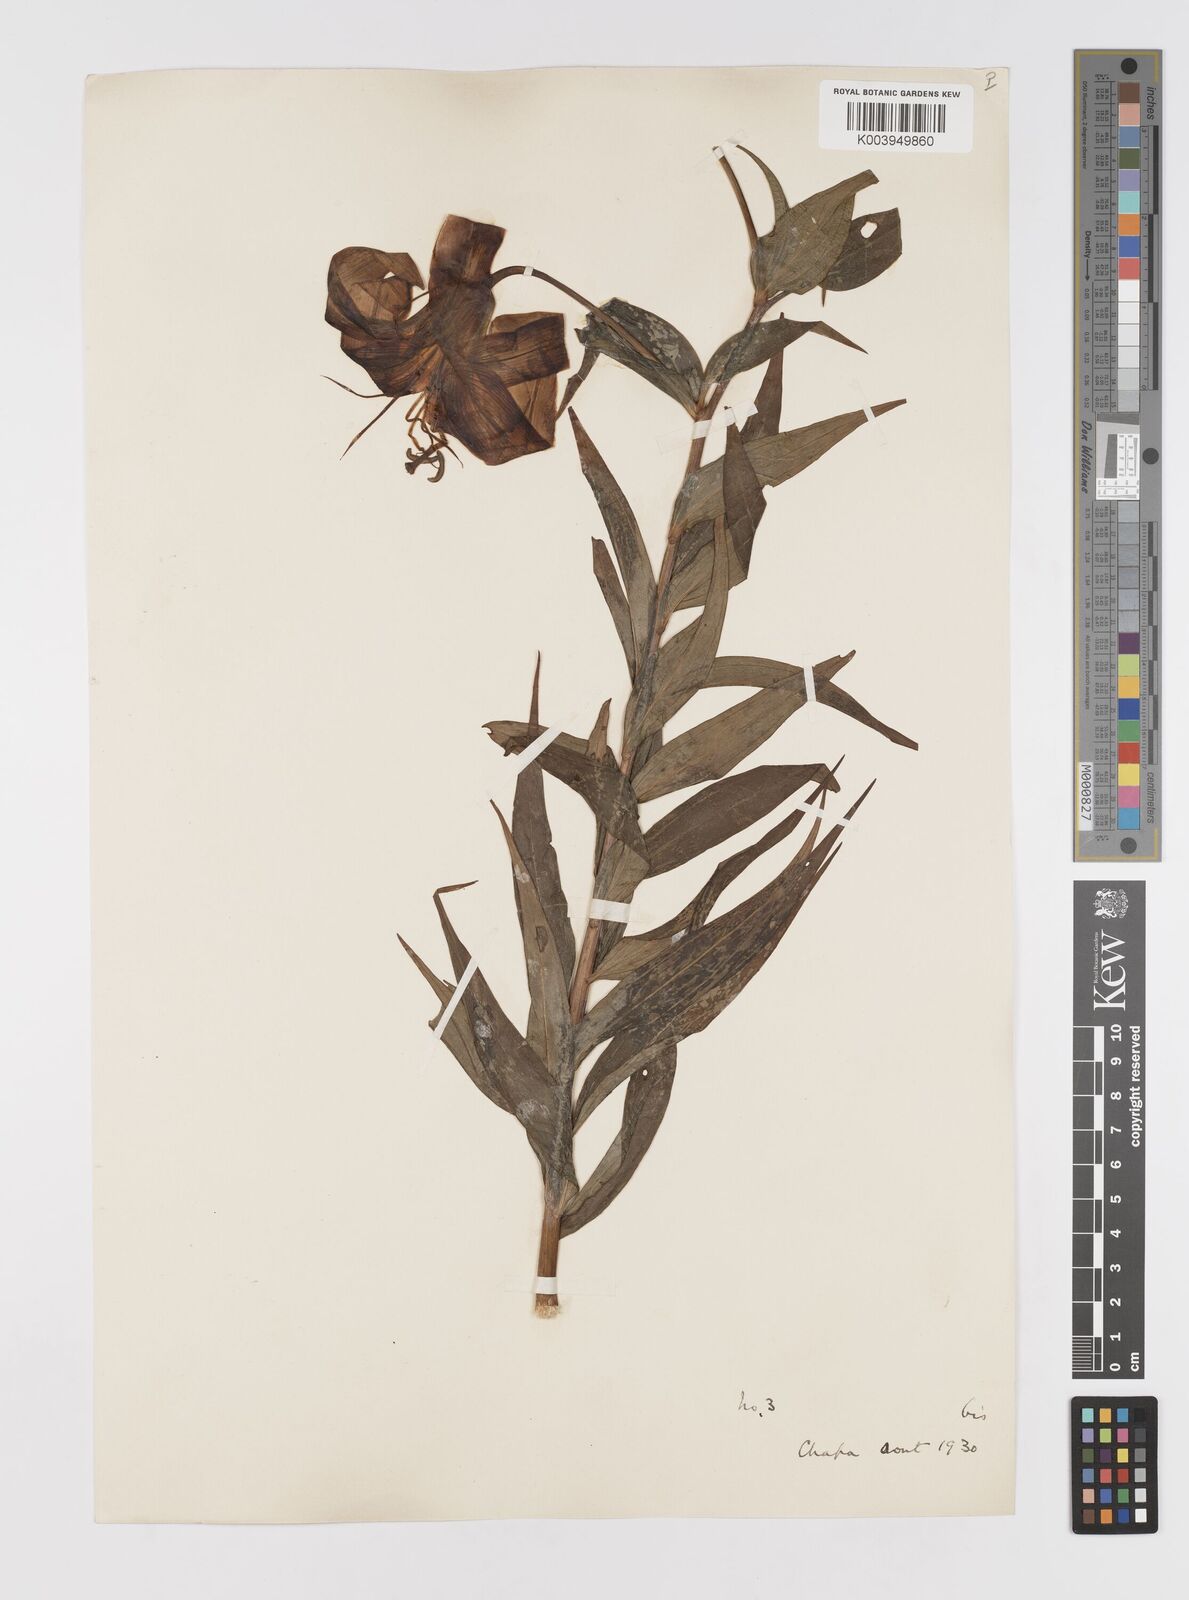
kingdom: Plantae
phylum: Tracheophyta
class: Liliopsida
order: Liliales
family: Liliaceae
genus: Lilium
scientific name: Lilium primulinum
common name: Ochre lily
